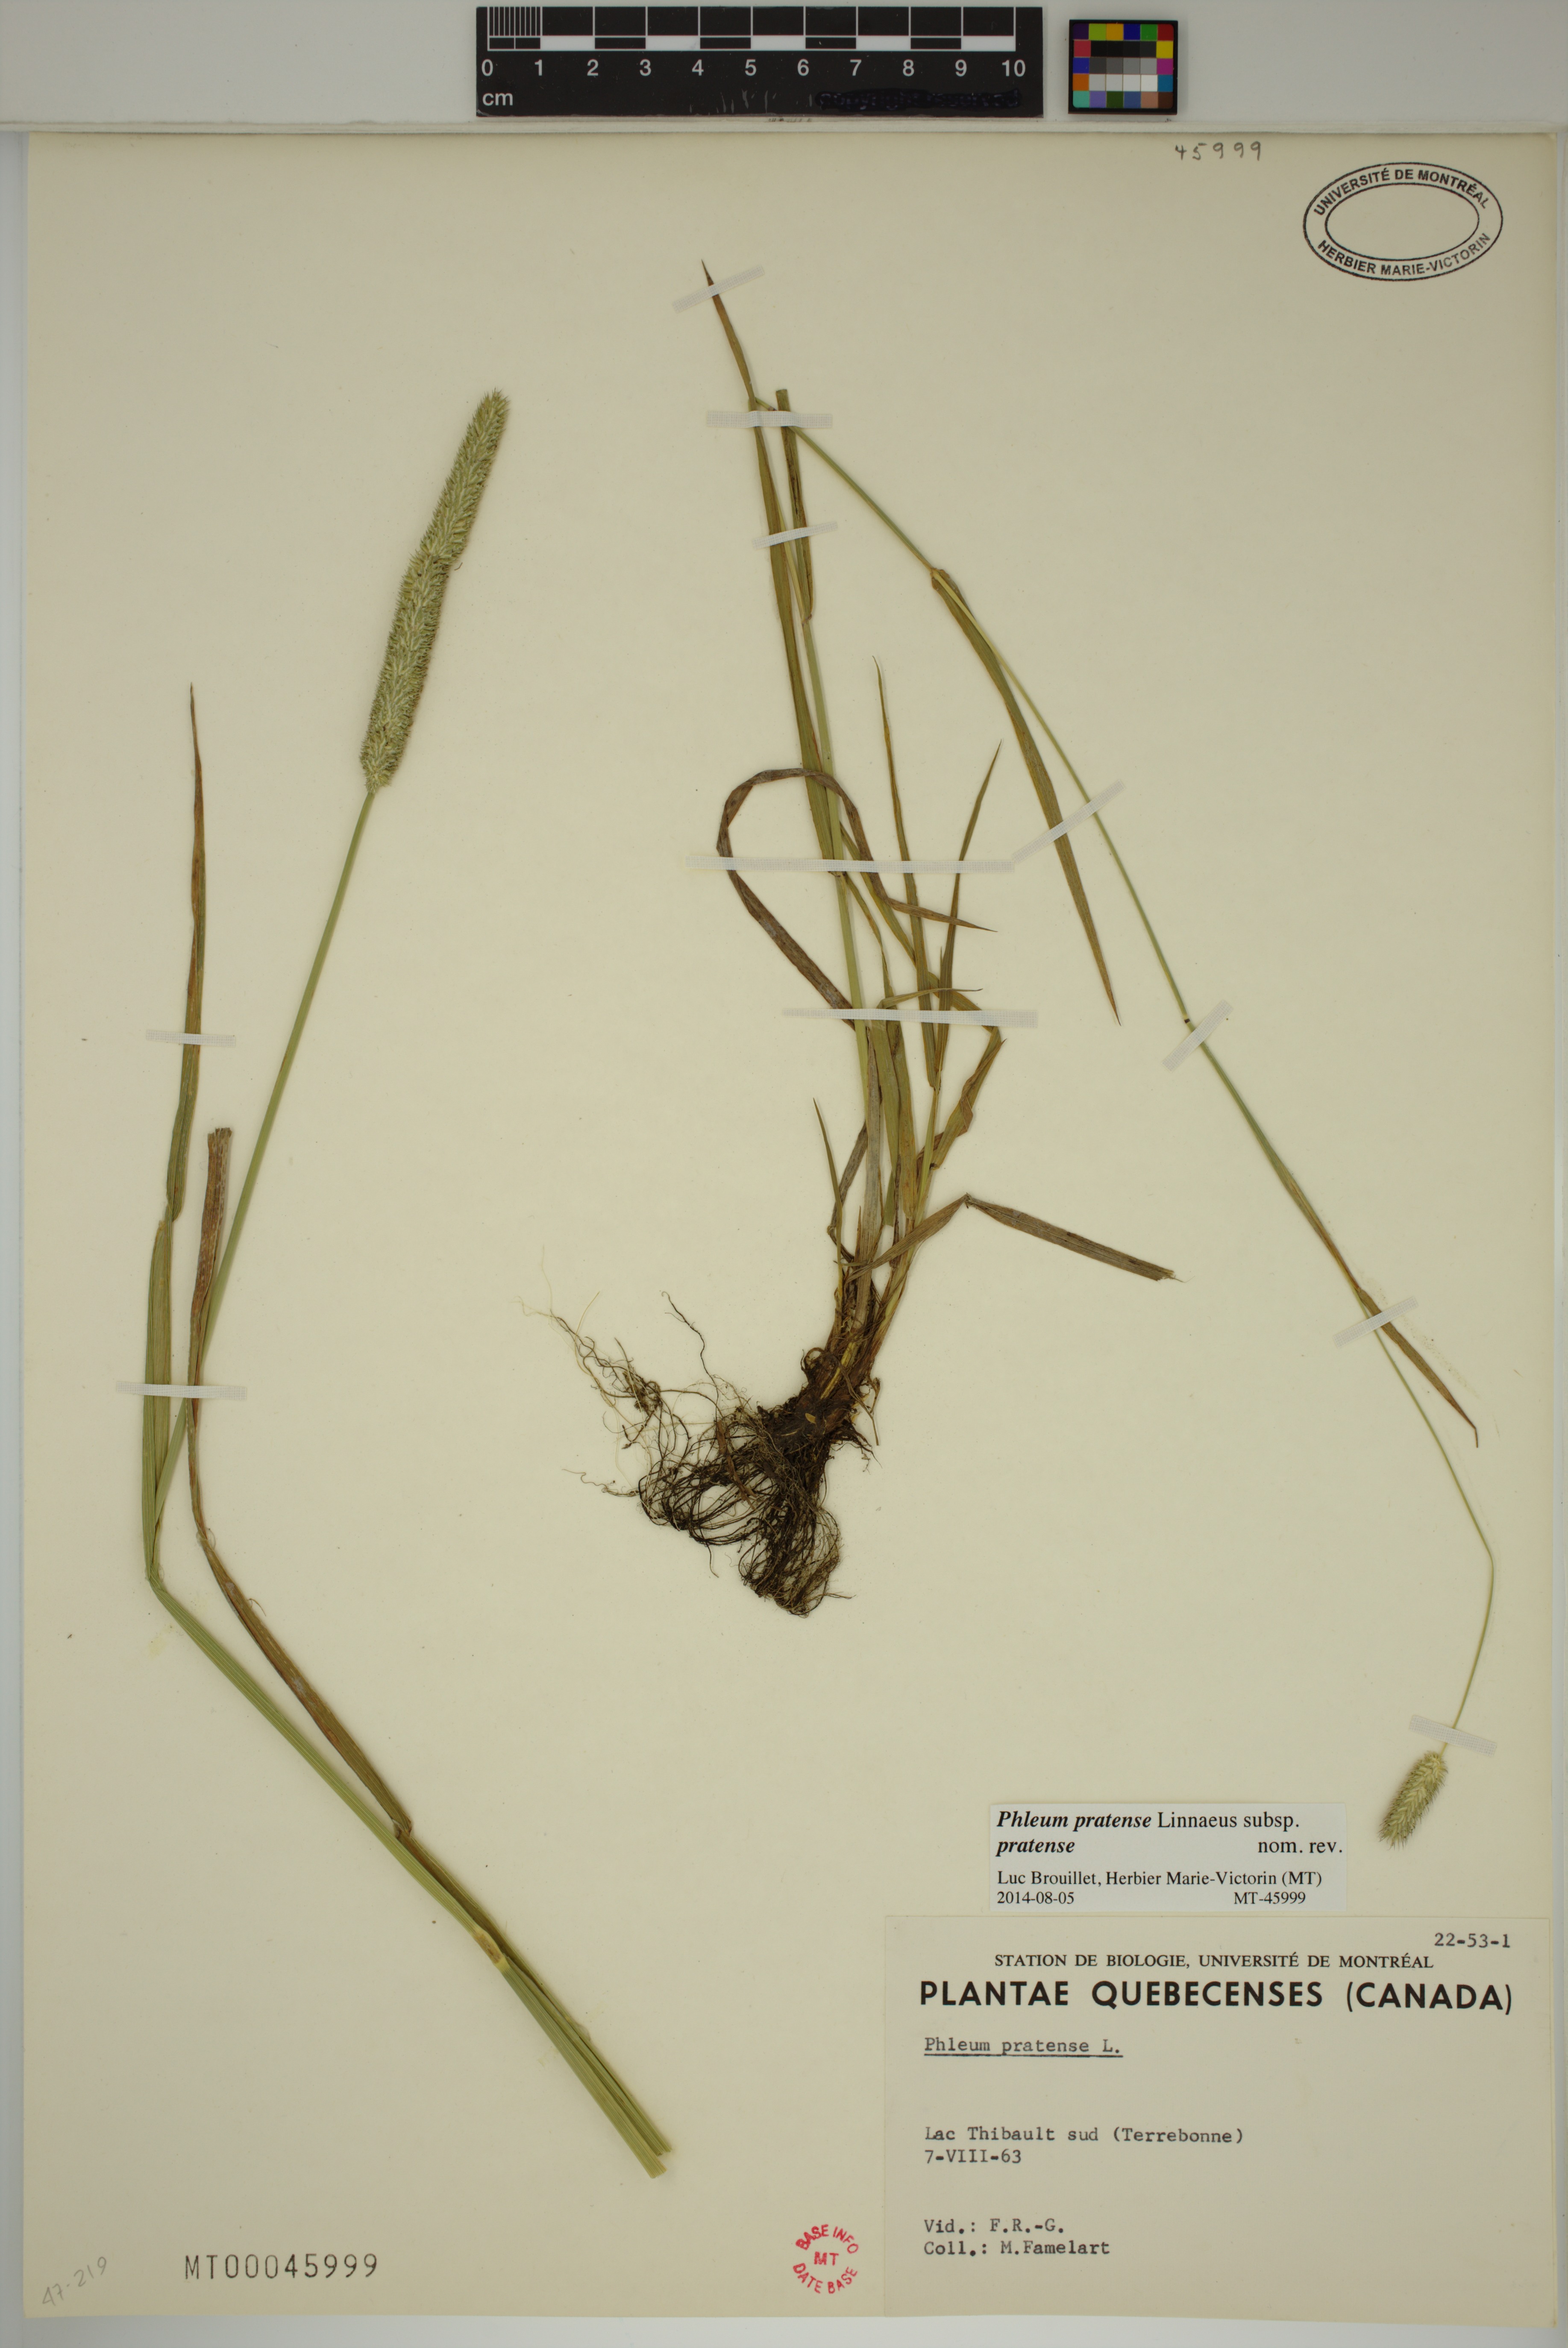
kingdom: Plantae
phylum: Tracheophyta
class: Liliopsida
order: Poales
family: Poaceae
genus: Phleum
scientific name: Phleum pratense
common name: Timothy grass
